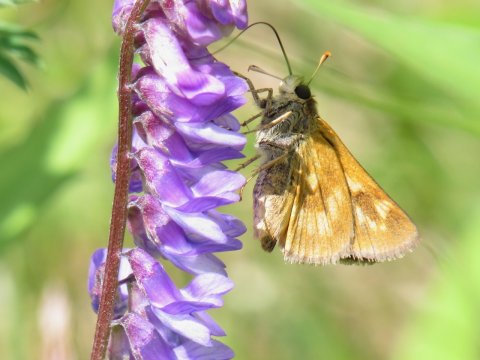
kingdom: Animalia
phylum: Arthropoda
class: Insecta
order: Lepidoptera
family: Hesperiidae
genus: Polites
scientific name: Polites
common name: Long Dash Skipper
